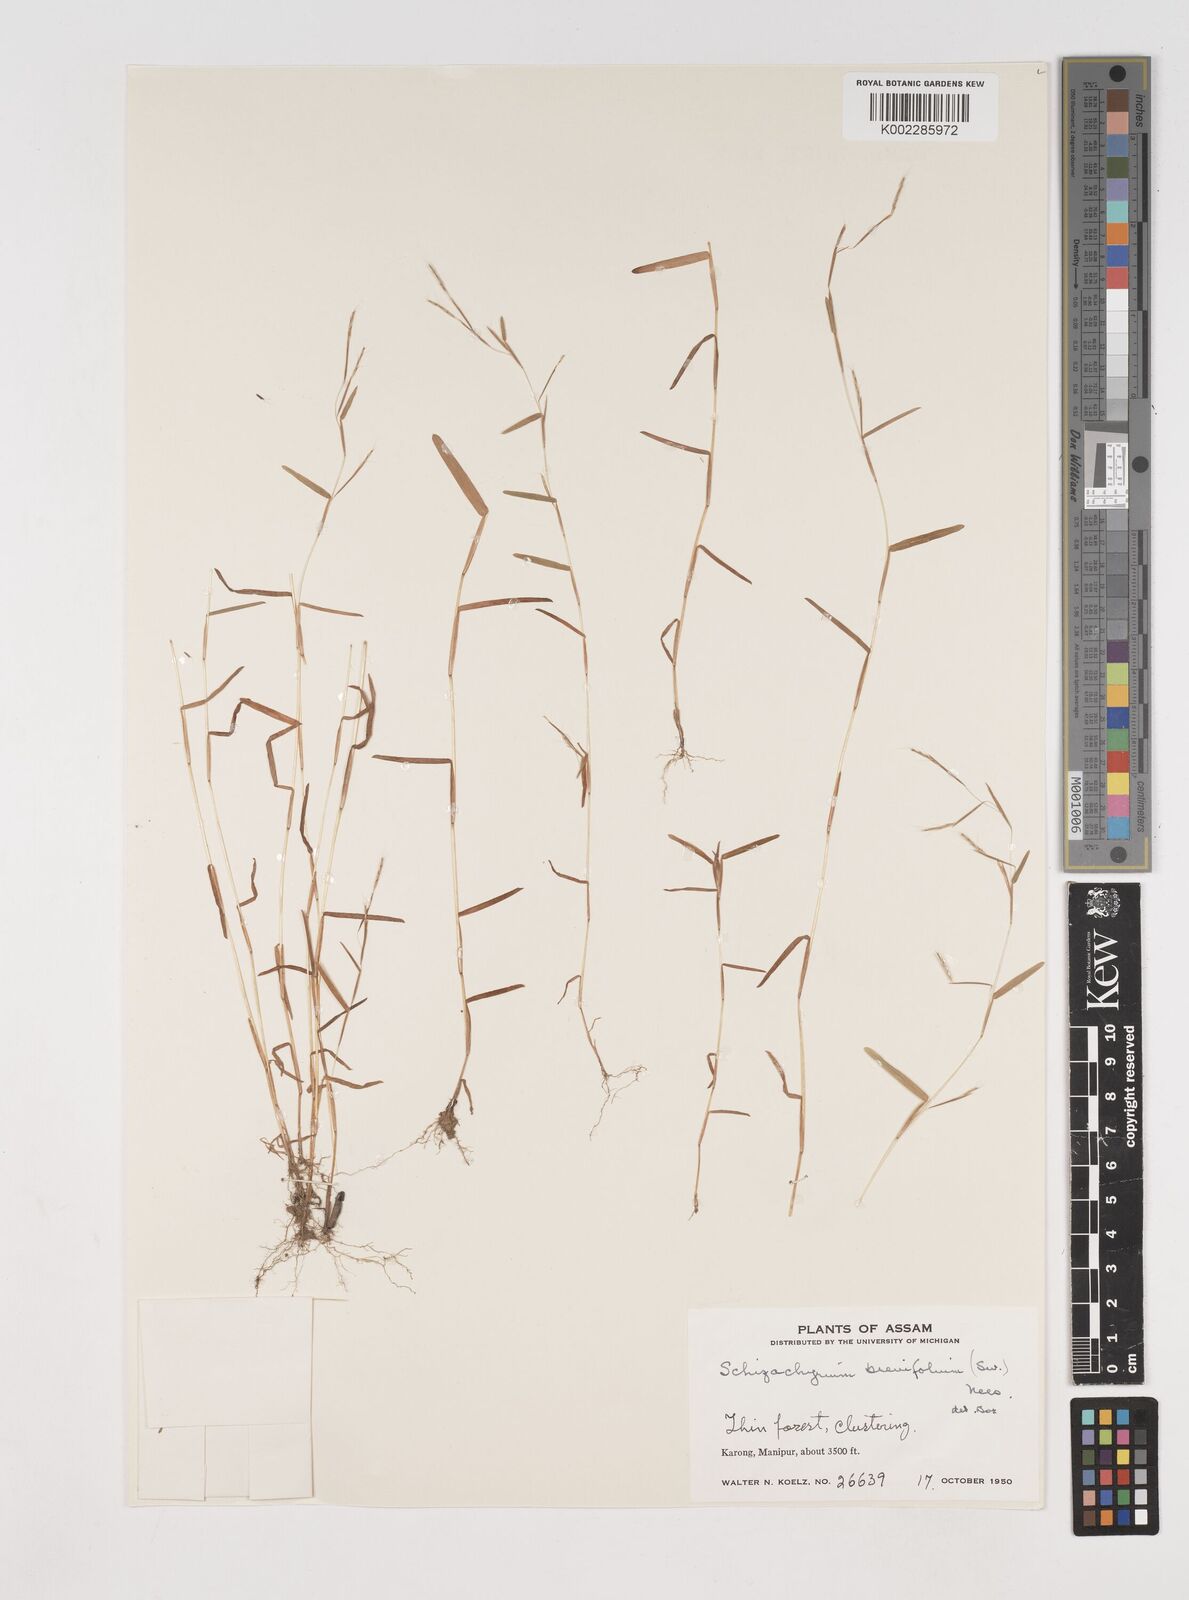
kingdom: Plantae
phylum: Tracheophyta
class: Liliopsida
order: Poales
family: Poaceae
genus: Schizachyrium
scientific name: Schizachyrium brevifolium
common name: Serillo dulce
